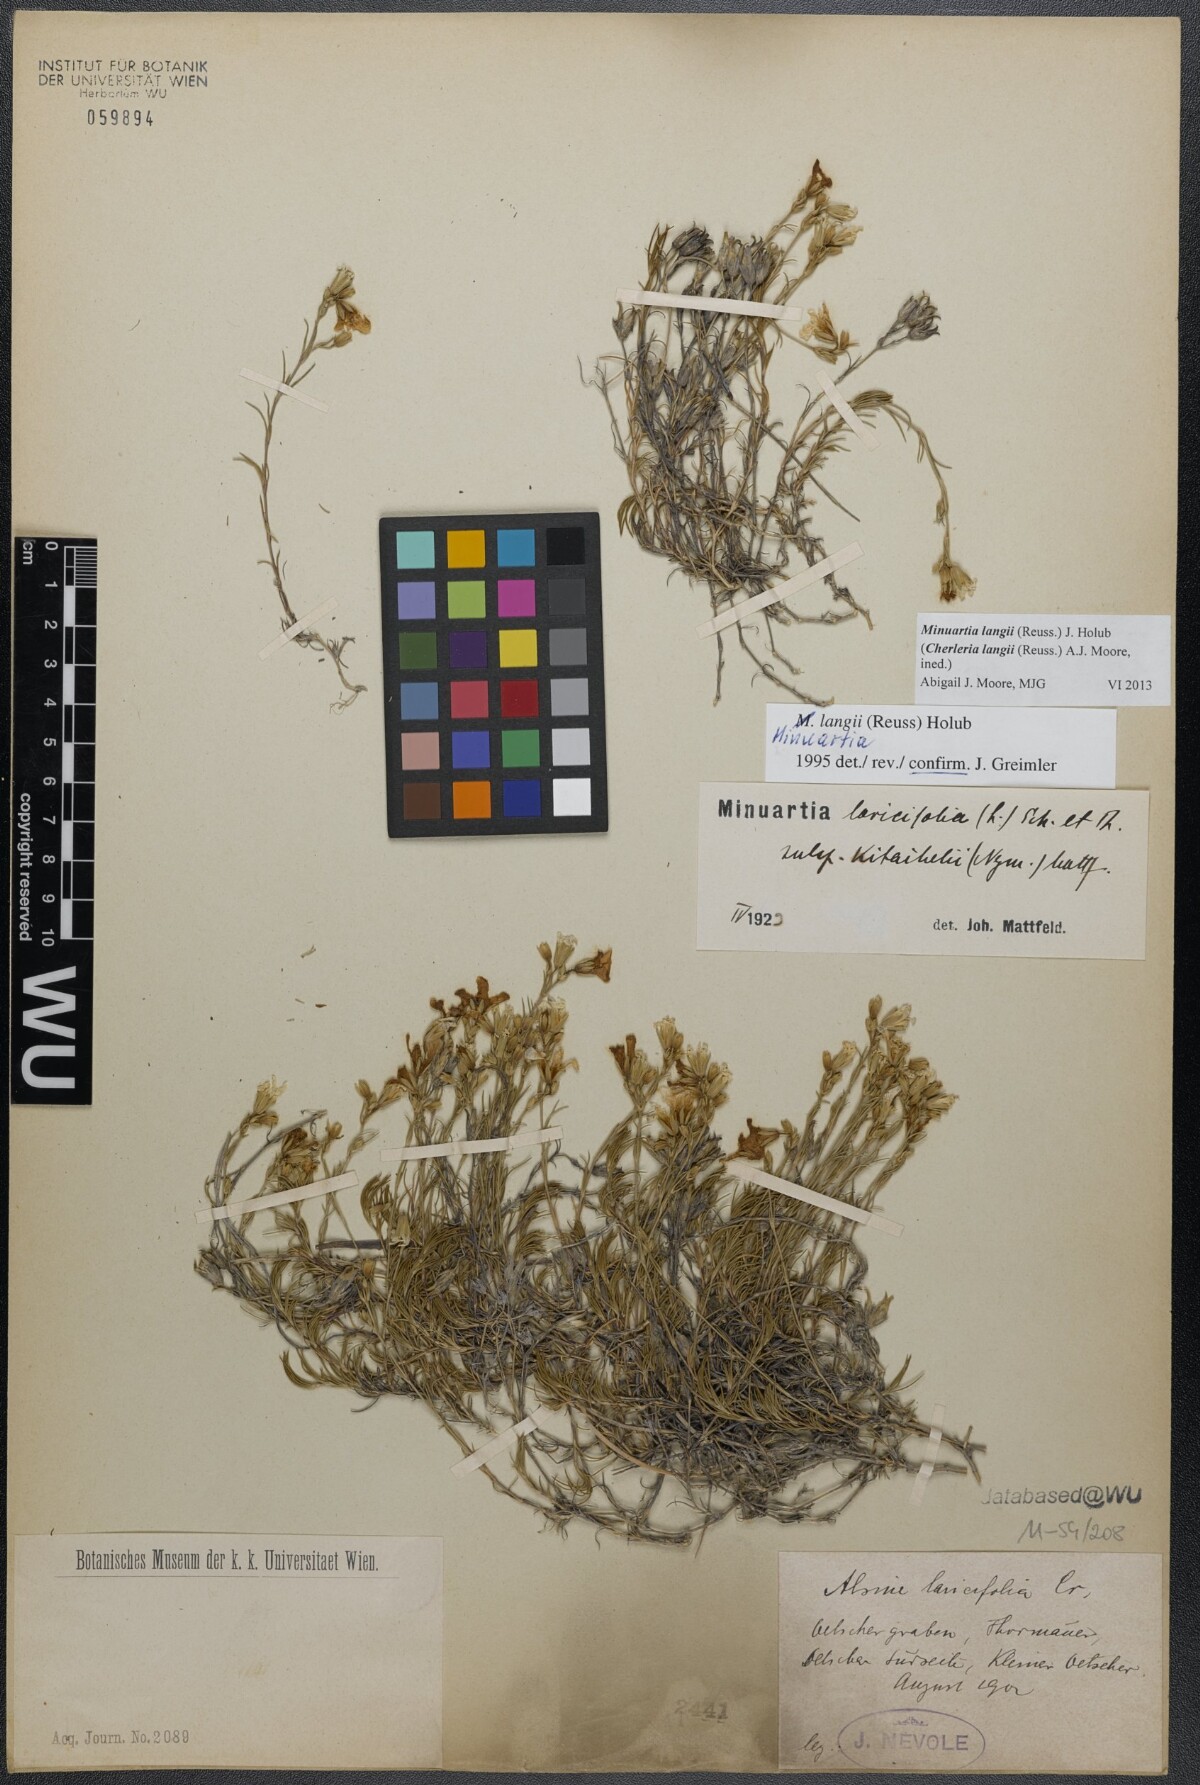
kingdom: Plantae
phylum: Tracheophyta
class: Magnoliopsida
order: Caryophyllales
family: Caryophyllaceae
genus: Cherleria
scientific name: Cherleria langii
